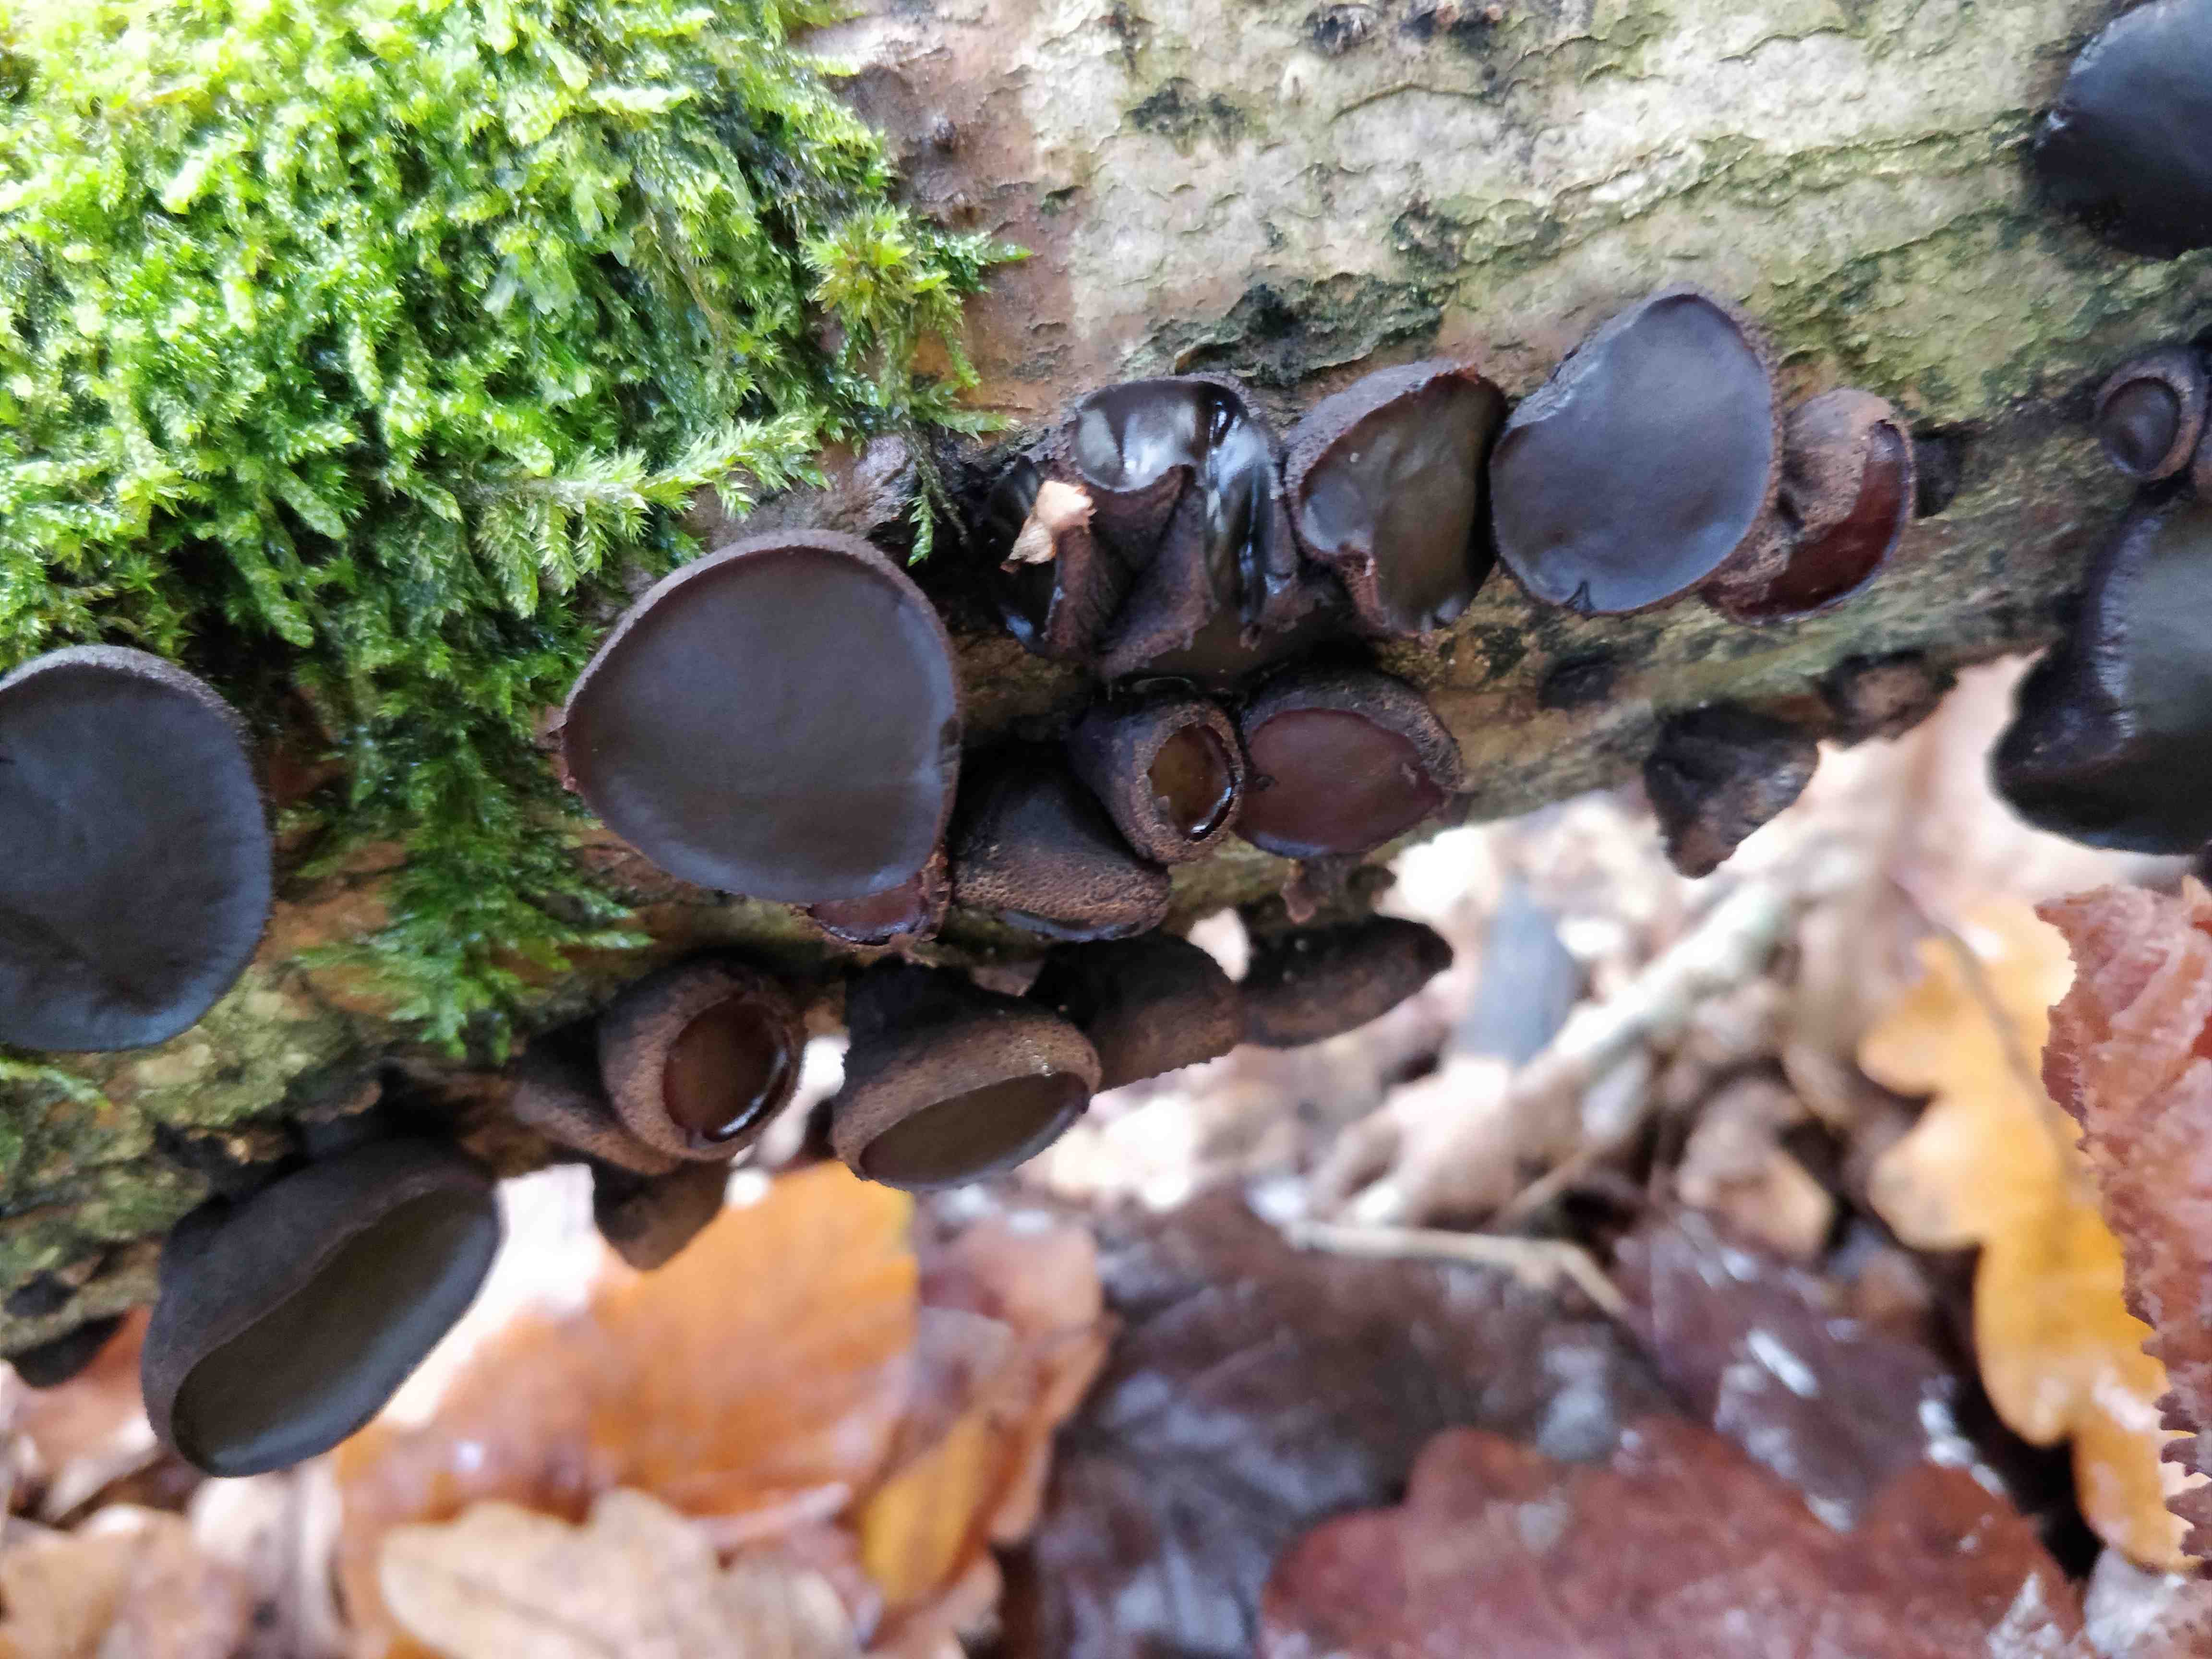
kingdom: Fungi
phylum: Ascomycota
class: Leotiomycetes
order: Phacidiales
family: Phacidiaceae
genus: Bulgaria
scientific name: Bulgaria inquinans
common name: afsmittende topsvamp
